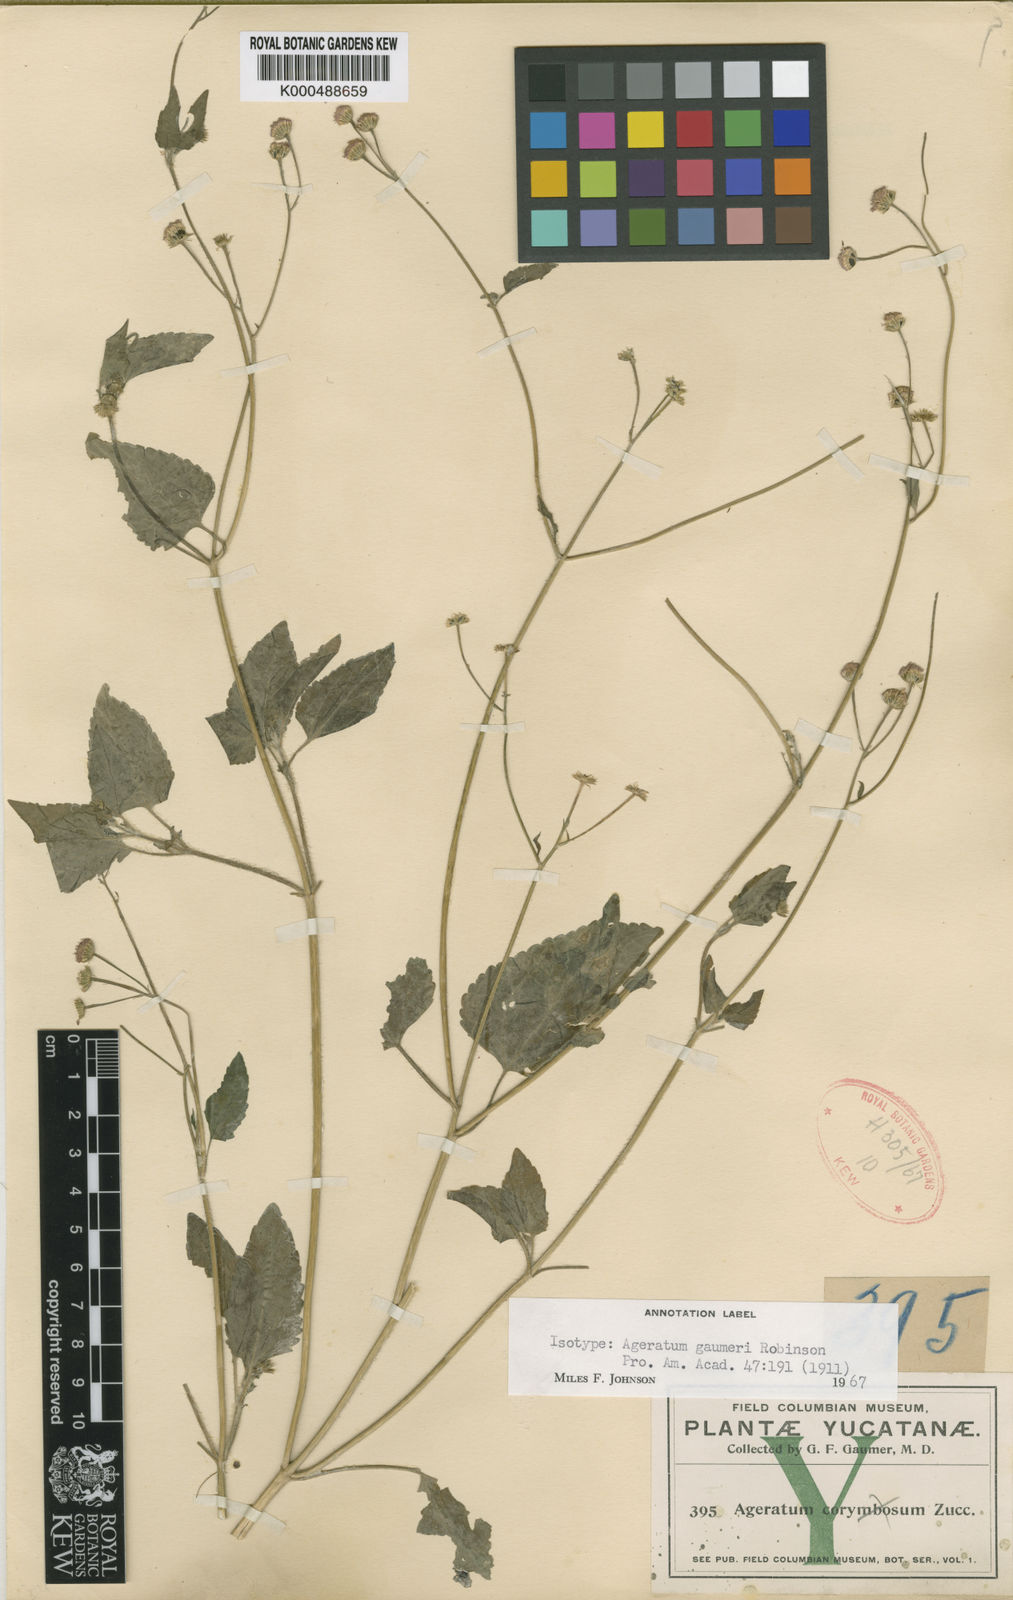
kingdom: Plantae
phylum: Tracheophyta
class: Magnoliopsida
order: Asterales
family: Asteraceae
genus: Ageratum
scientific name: Ageratum gaumeri
